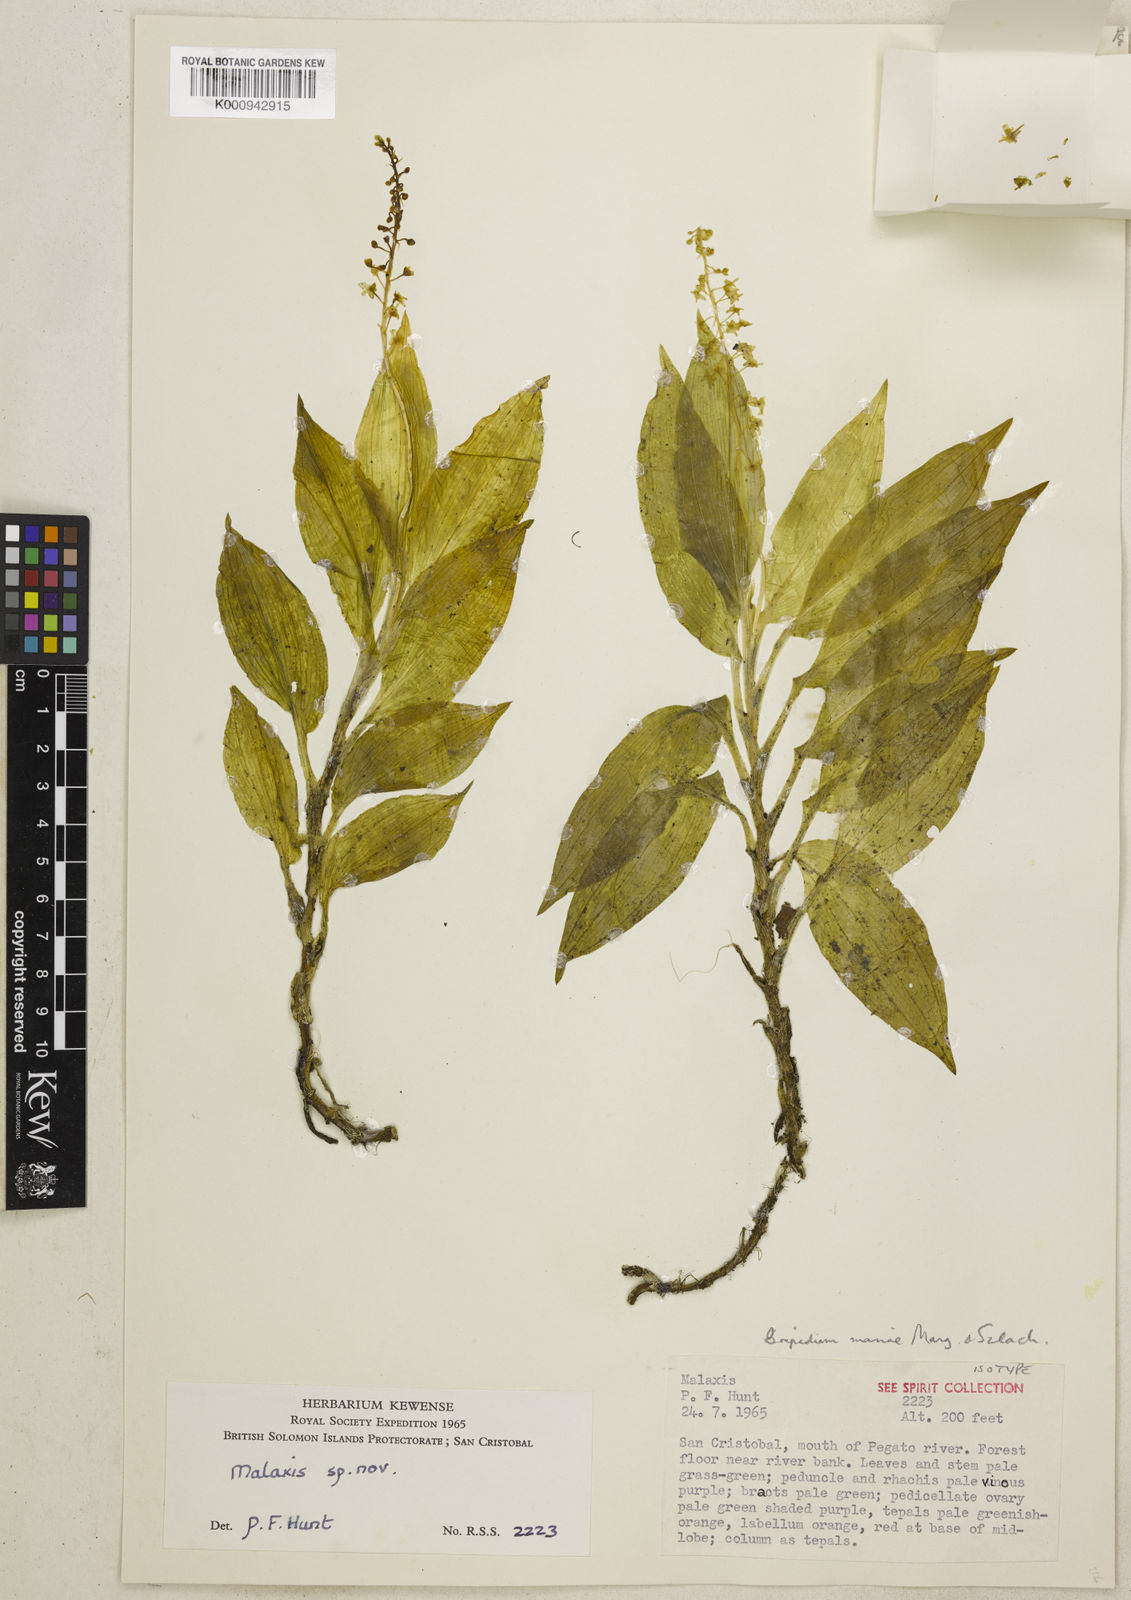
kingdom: Plantae
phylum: Tracheophyta
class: Liliopsida
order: Asparagales
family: Orchidaceae
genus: Crepidium
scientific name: Crepidium mariae
